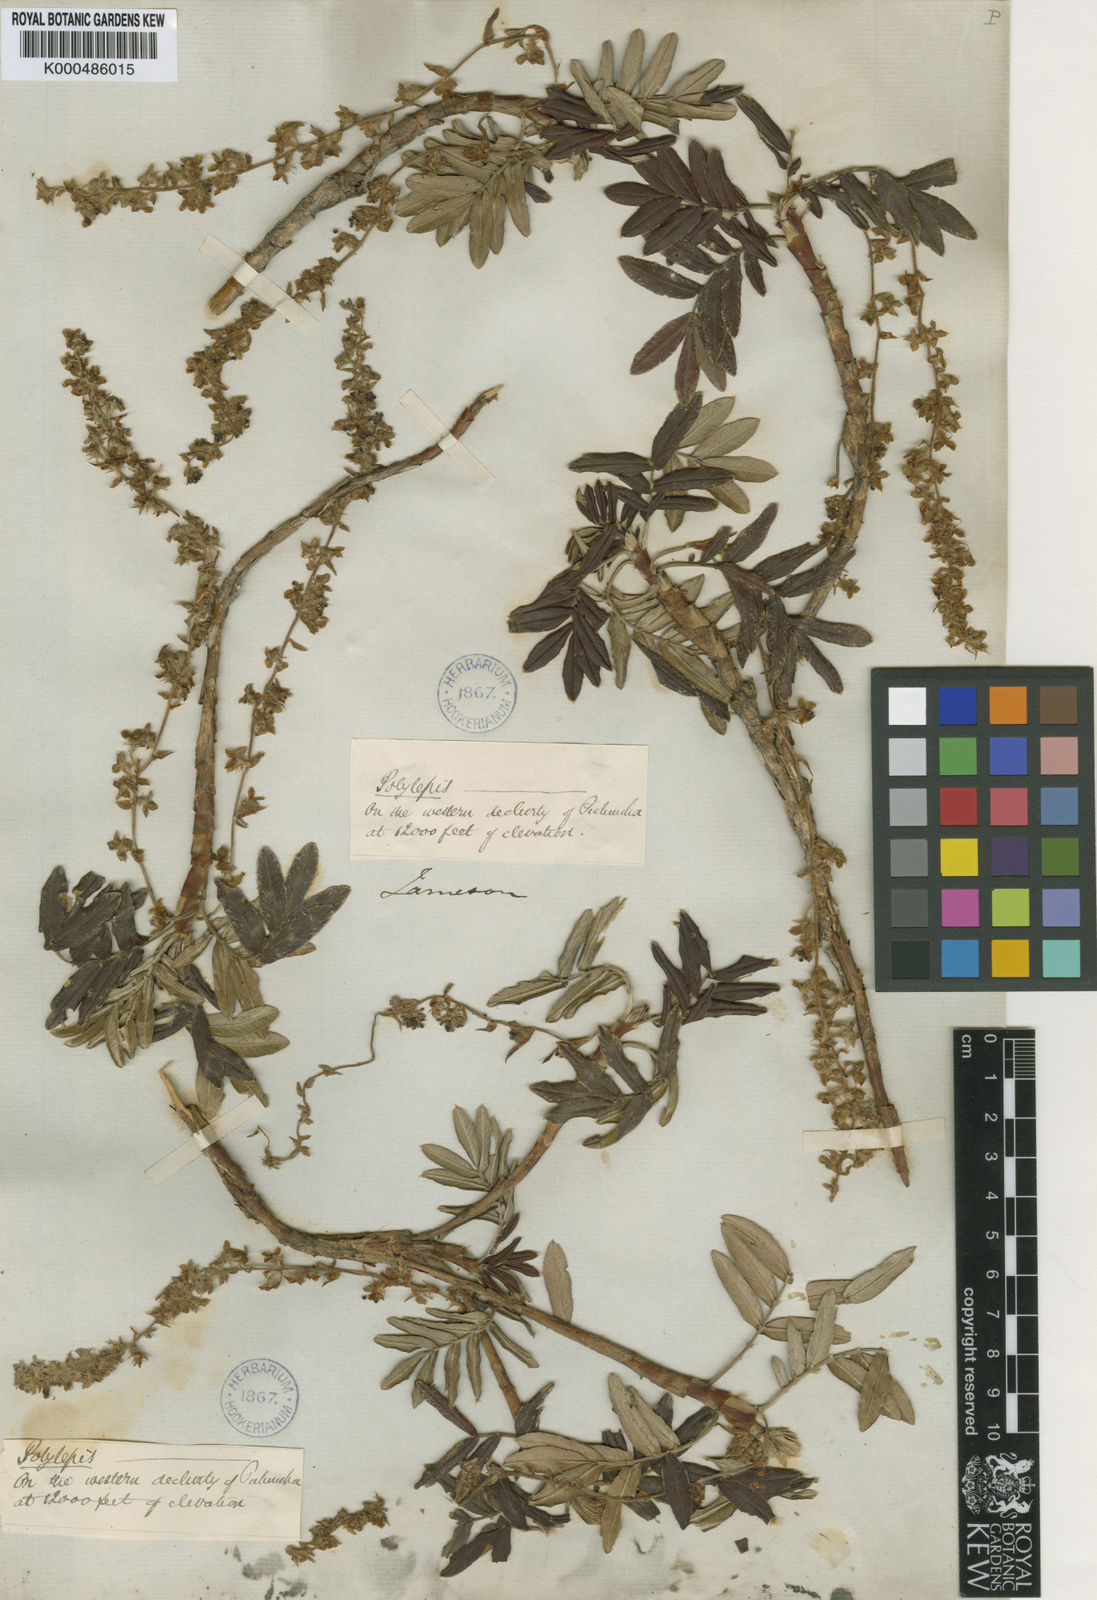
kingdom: Plantae
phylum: Tracheophyta
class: Magnoliopsida
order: Rosales
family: Rosaceae
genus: Polylepis
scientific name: Polylepis sericea
